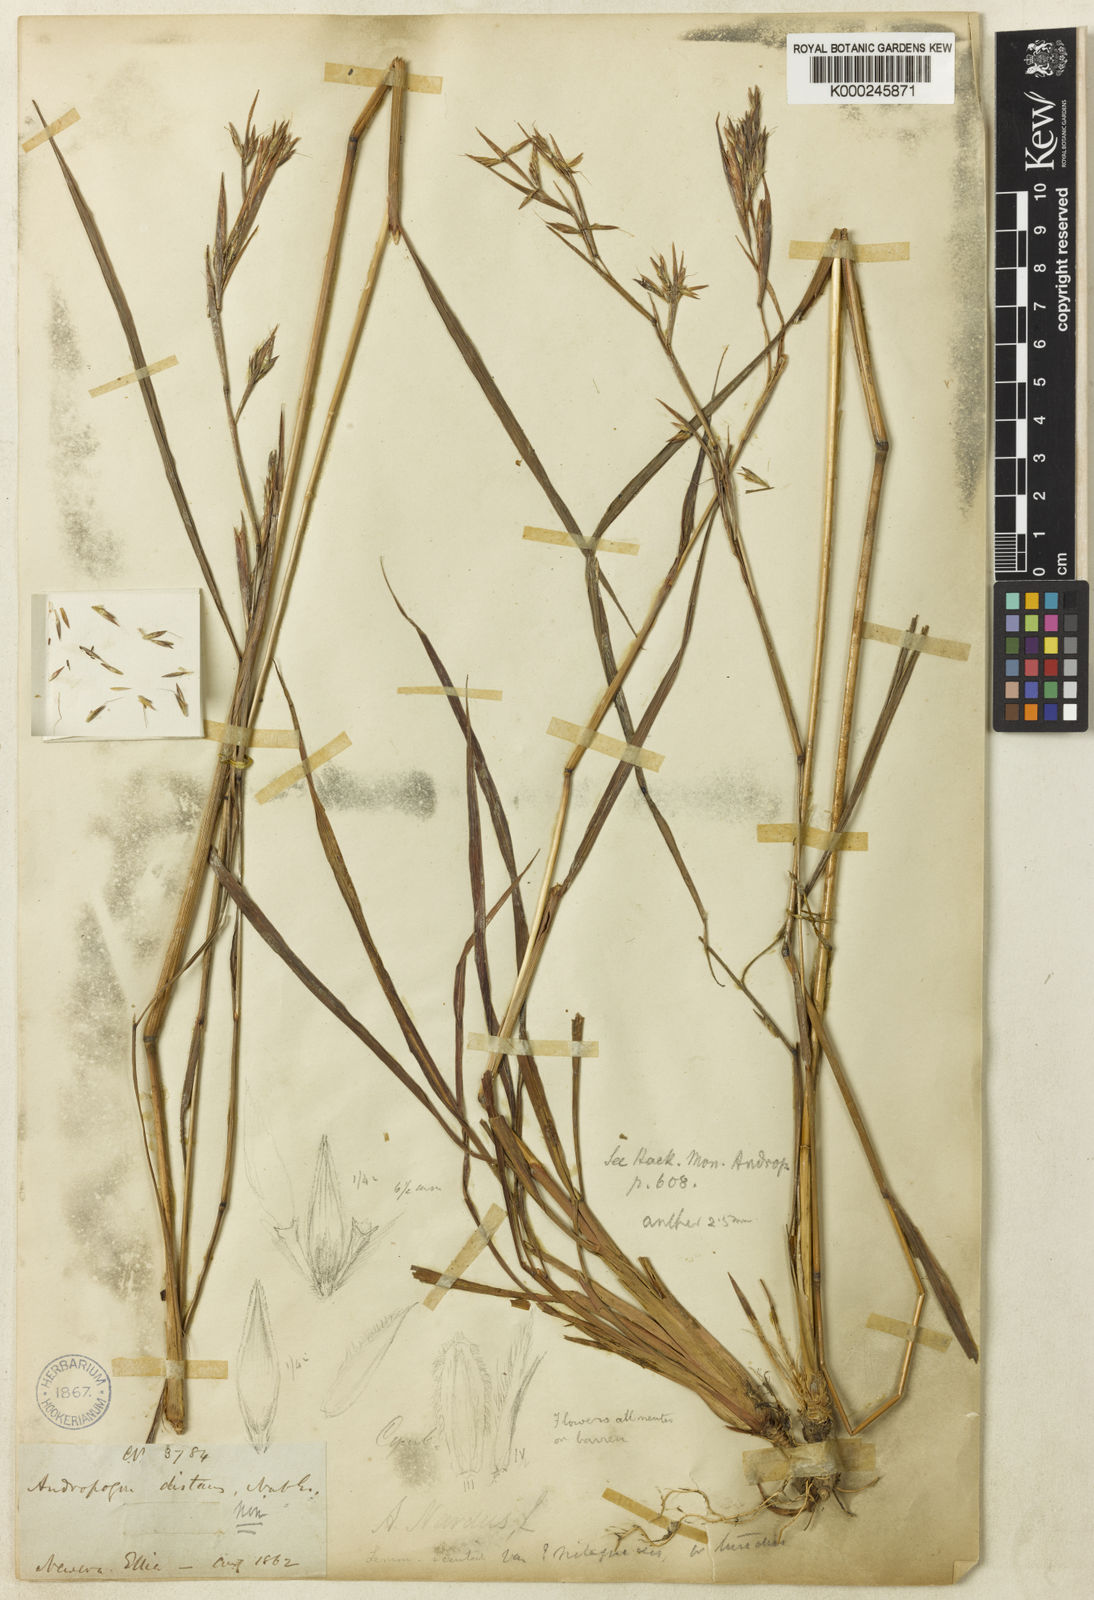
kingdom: Plantae
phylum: Tracheophyta
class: Liliopsida
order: Poales
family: Poaceae
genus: Cymbopogon
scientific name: Cymbopogon nardus
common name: Giant turpentine grass
